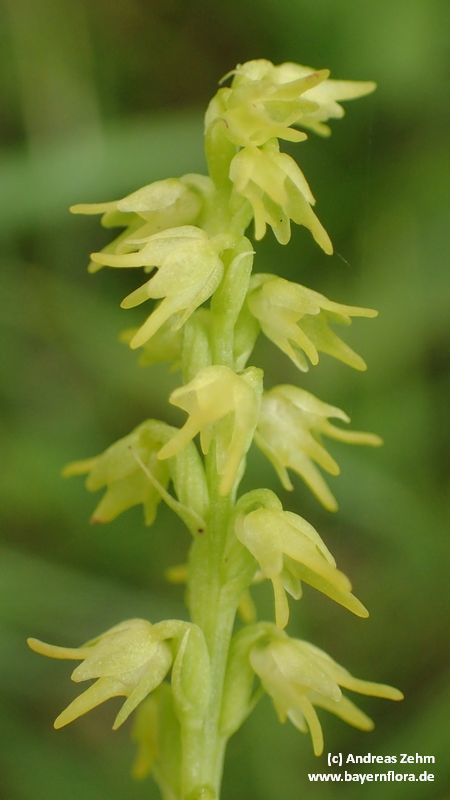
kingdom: Plantae
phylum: Tracheophyta
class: Liliopsida
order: Asparagales
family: Orchidaceae
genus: Herminium
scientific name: Herminium monorchis
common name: Musk orchid
